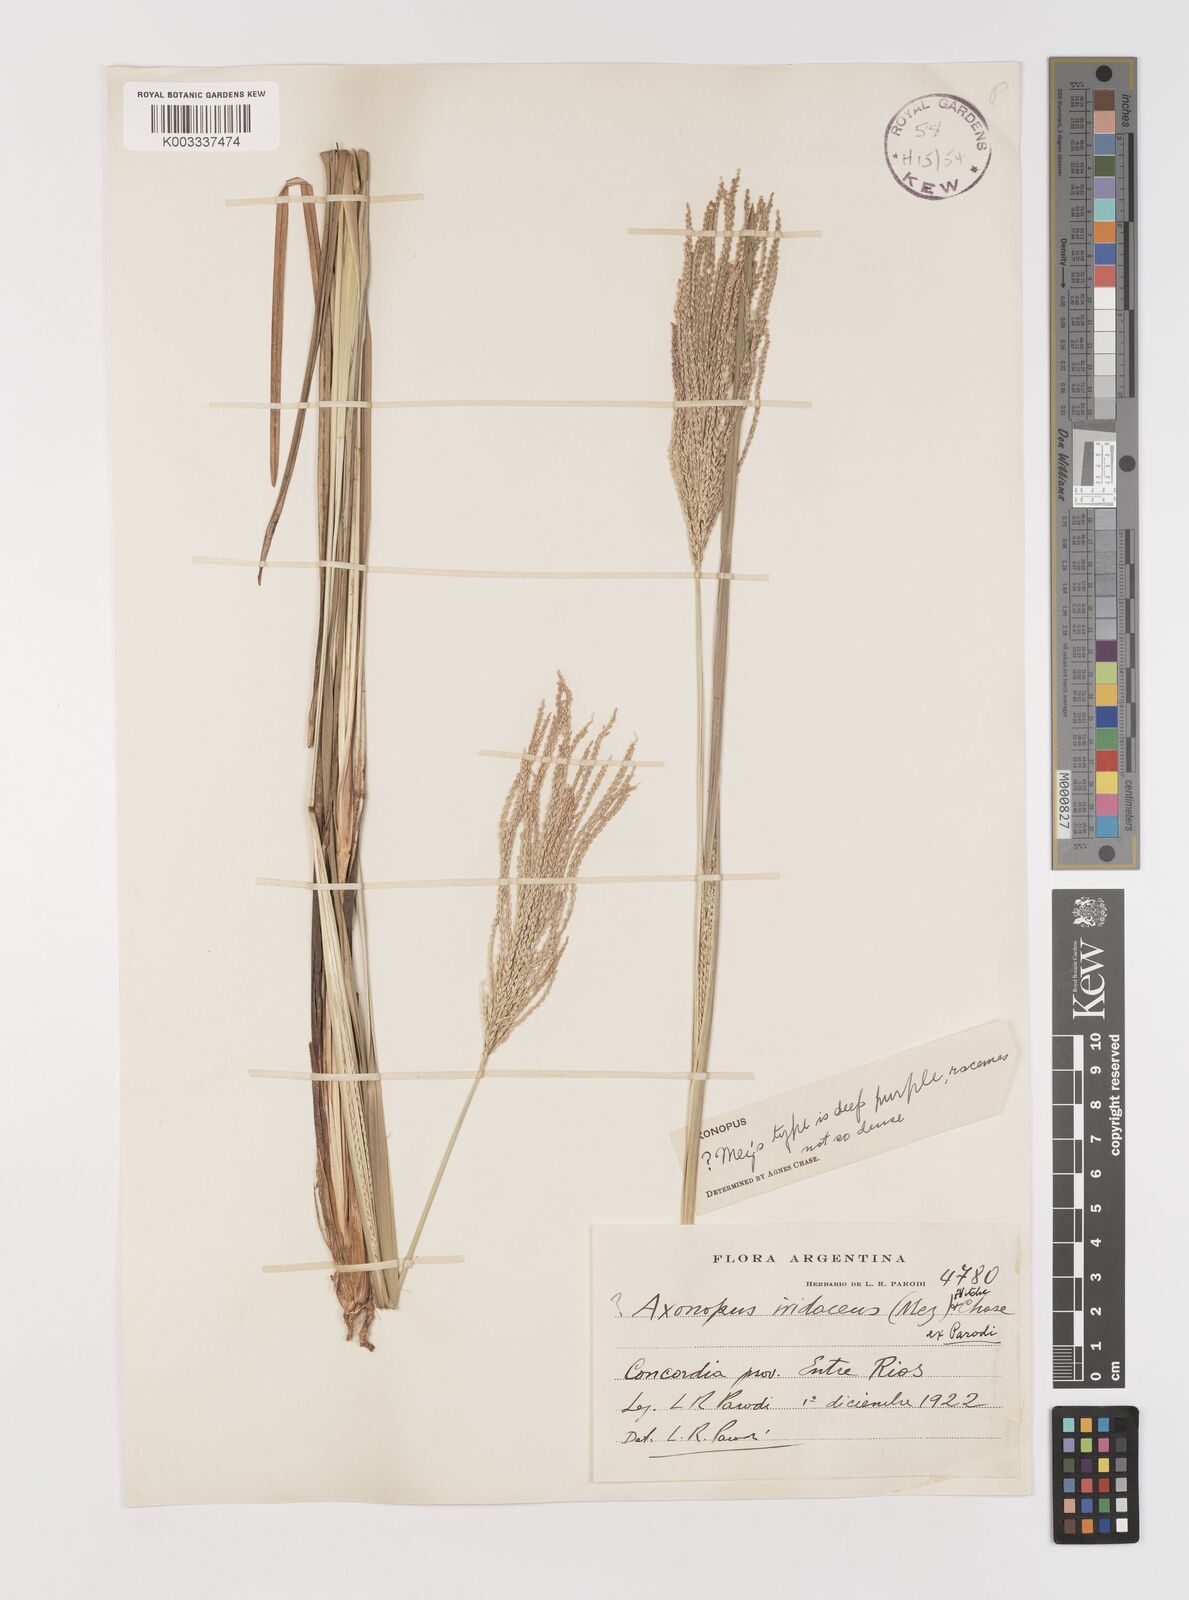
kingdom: Plantae
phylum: Tracheophyta
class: Liliopsida
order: Poales
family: Poaceae
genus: Axonopus
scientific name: Axonopus
